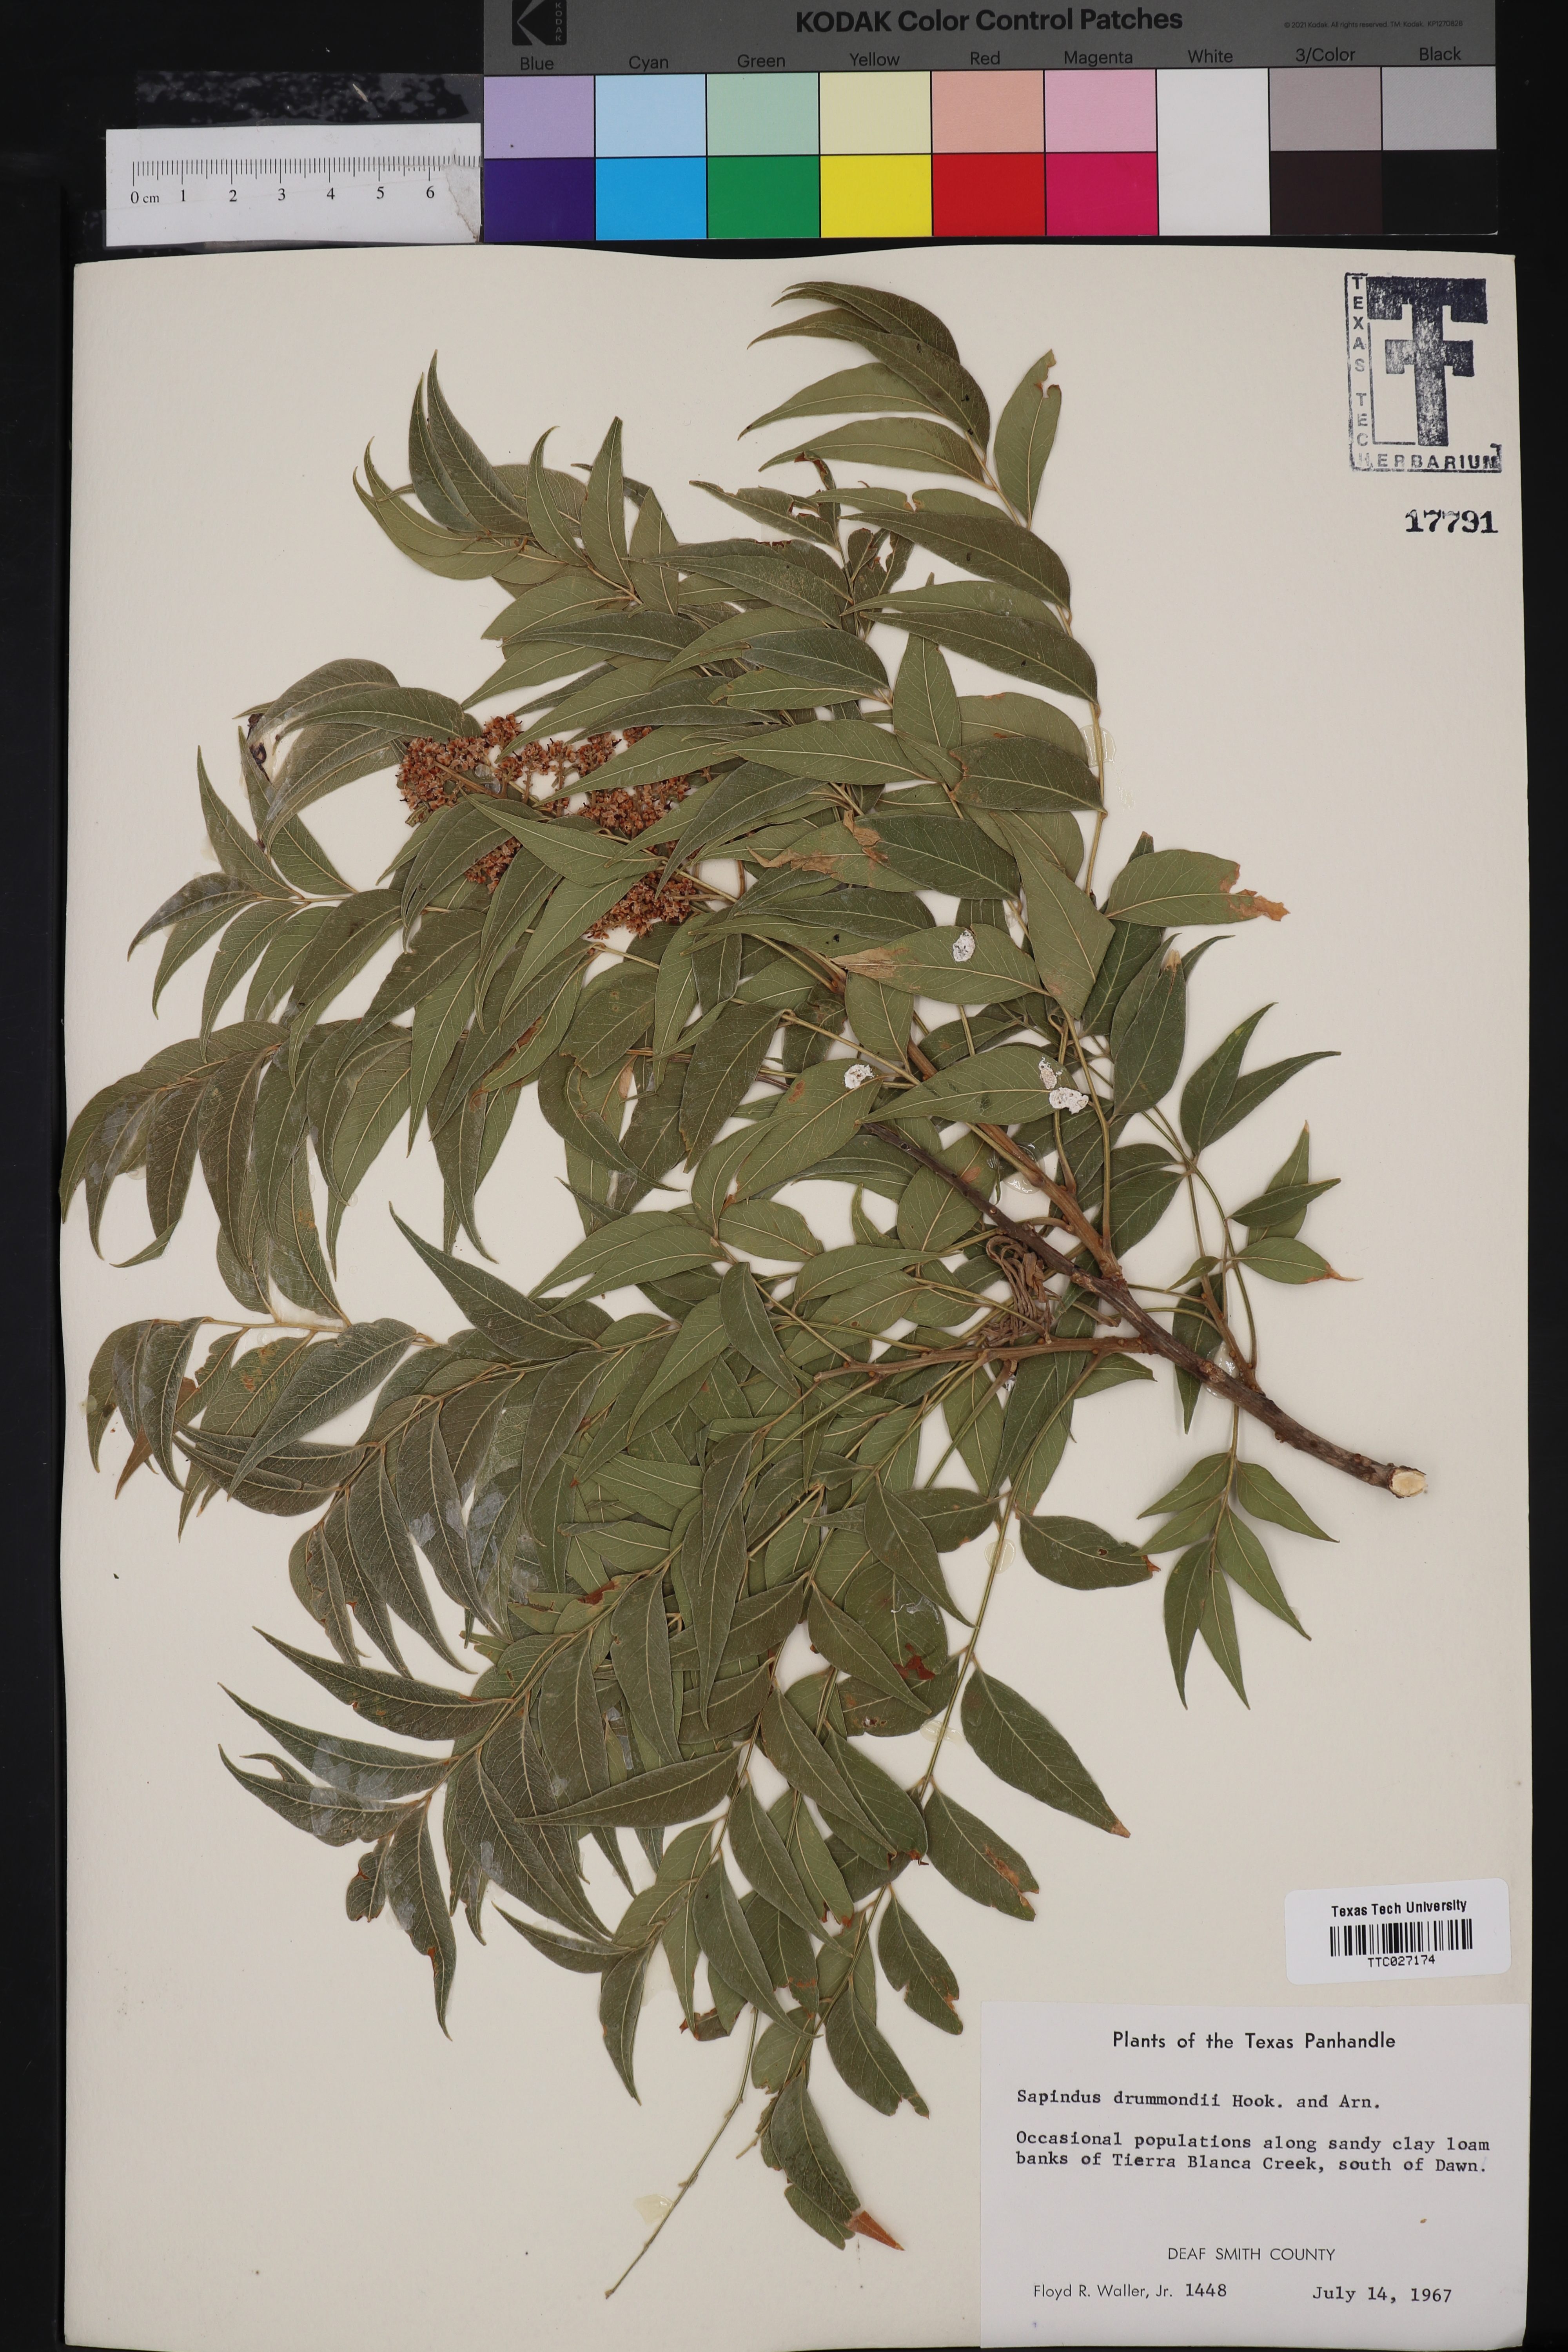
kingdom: Plantae
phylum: Tracheophyta
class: Magnoliopsida
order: Sapindales
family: Sapindaceae
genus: Sapindus
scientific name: Sapindus drummondii
